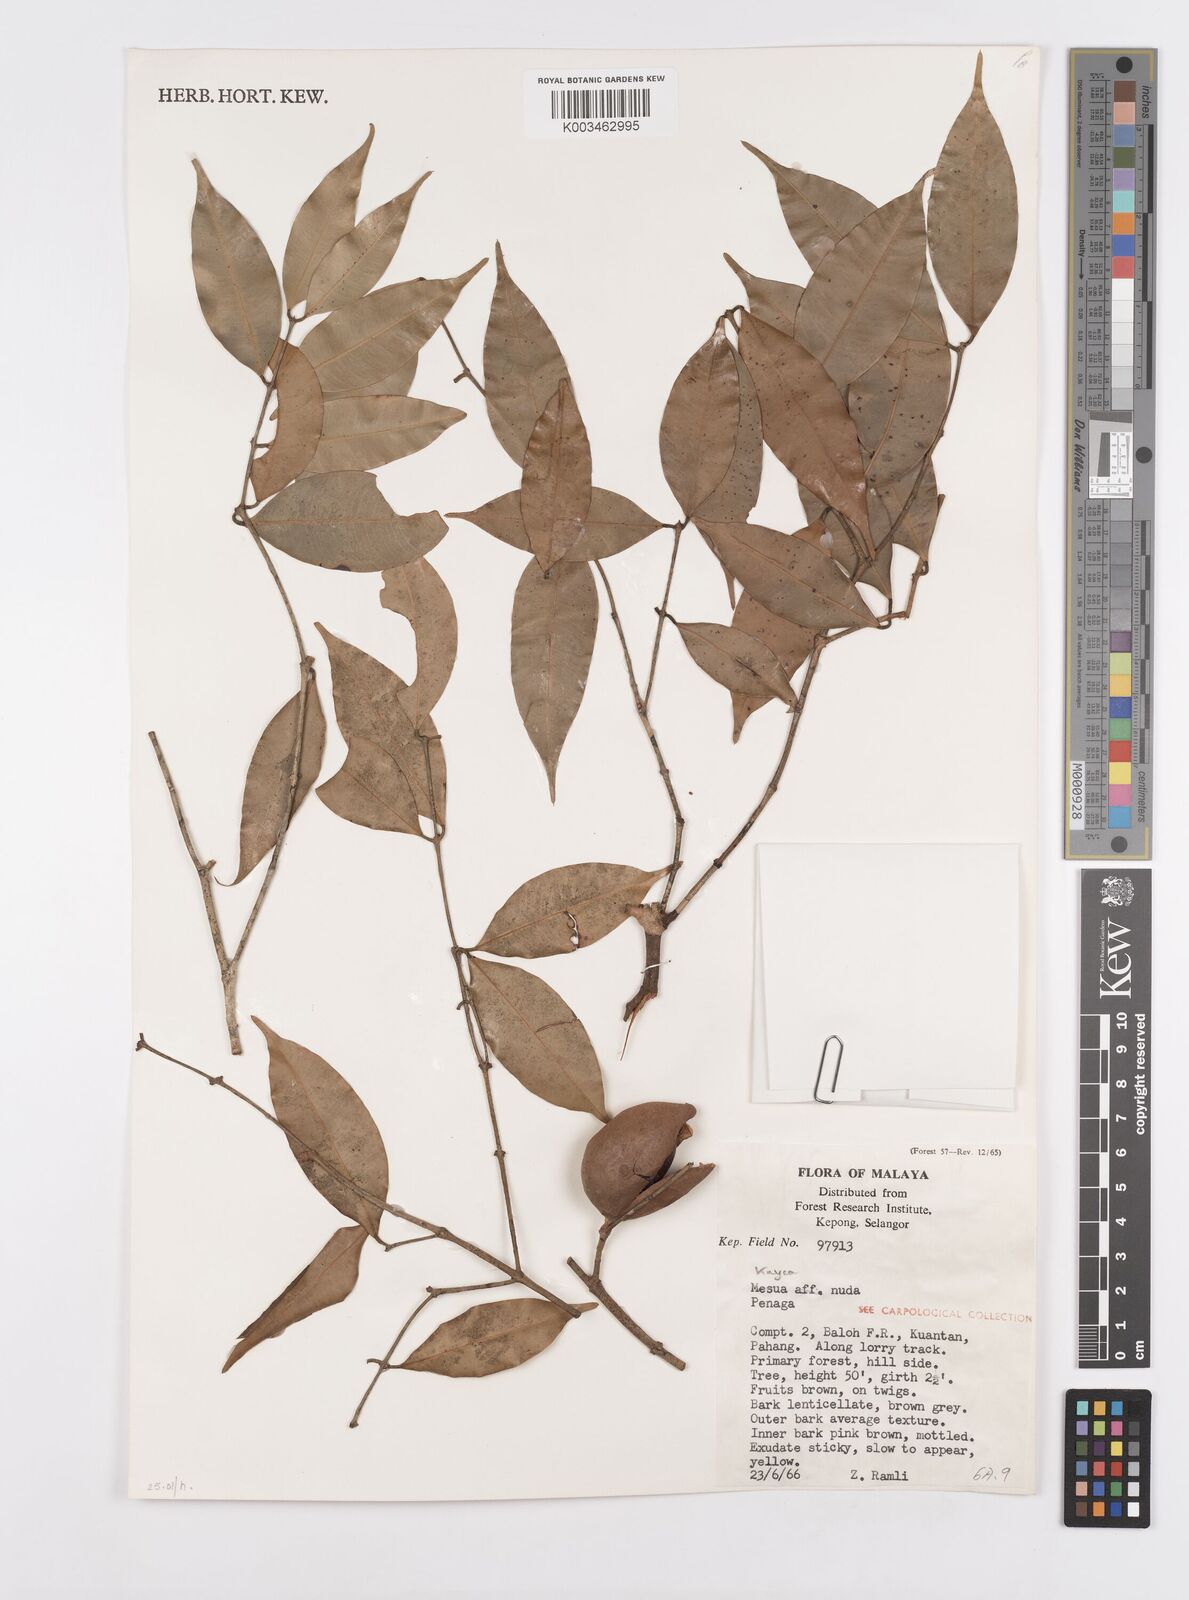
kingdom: Plantae
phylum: Tracheophyta
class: Magnoliopsida
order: Malpighiales
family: Calophyllaceae
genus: Kayea
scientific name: Kayea
